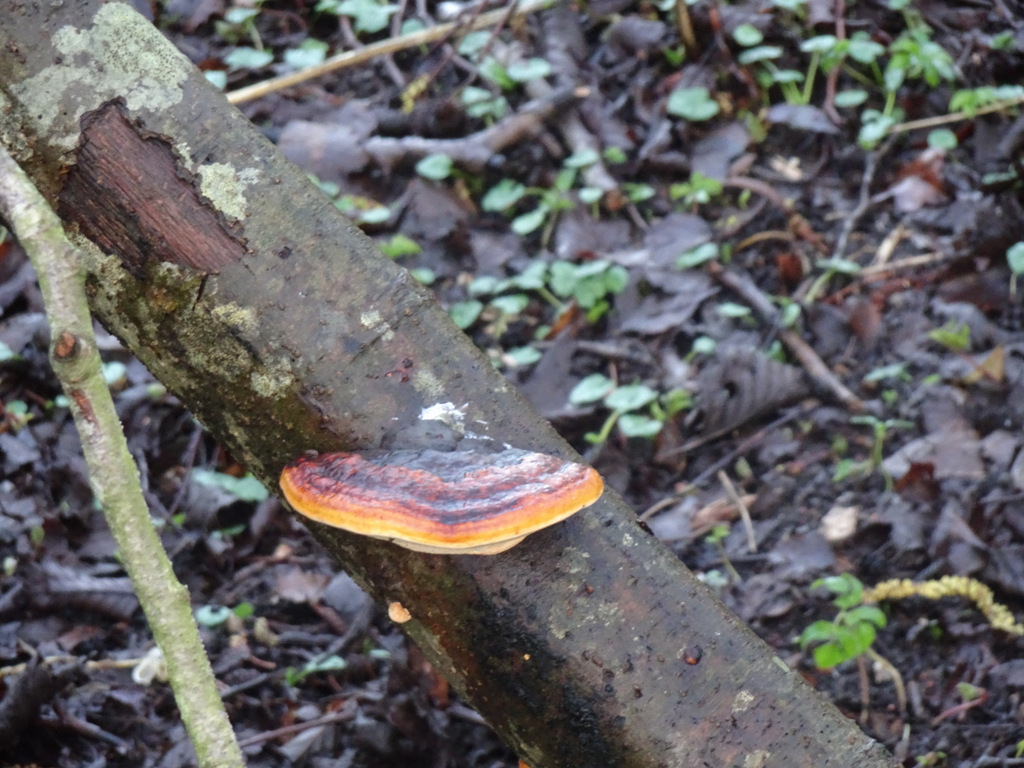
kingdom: Fungi
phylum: Basidiomycota
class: Agaricomycetes
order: Polyporales
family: Fomitopsidaceae
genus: Fomitopsis
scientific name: Fomitopsis pinicola
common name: randbæltet hovporesvamp
